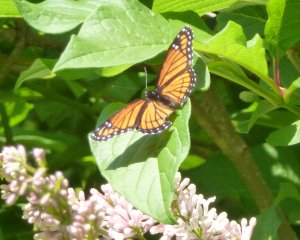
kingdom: Animalia
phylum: Arthropoda
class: Insecta
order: Lepidoptera
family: Nymphalidae
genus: Limenitis
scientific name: Limenitis archippus
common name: Viceroy
